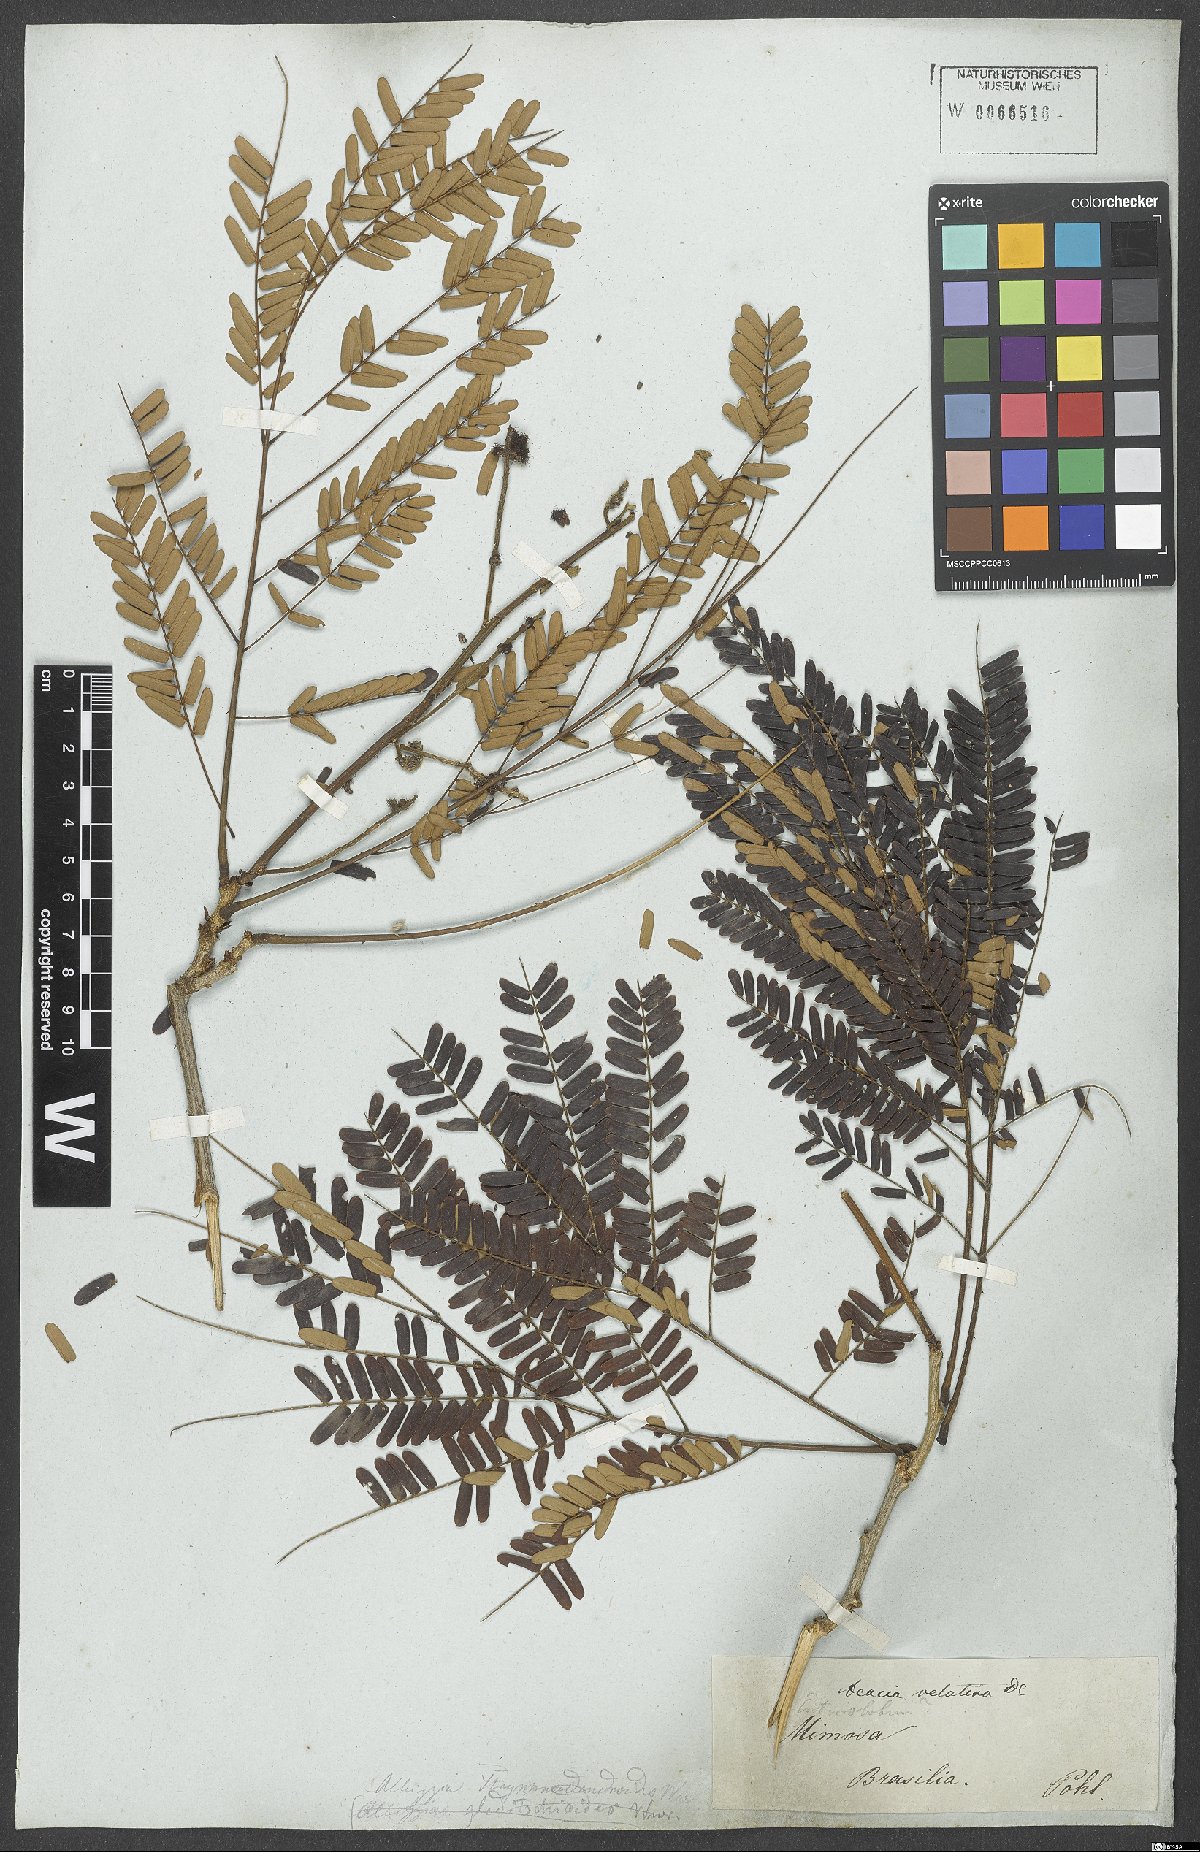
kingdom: Plantae
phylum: Tracheophyta
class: Magnoliopsida
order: Fabales
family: Fabaceae
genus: Senegalia
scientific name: Senegalia monacantha
